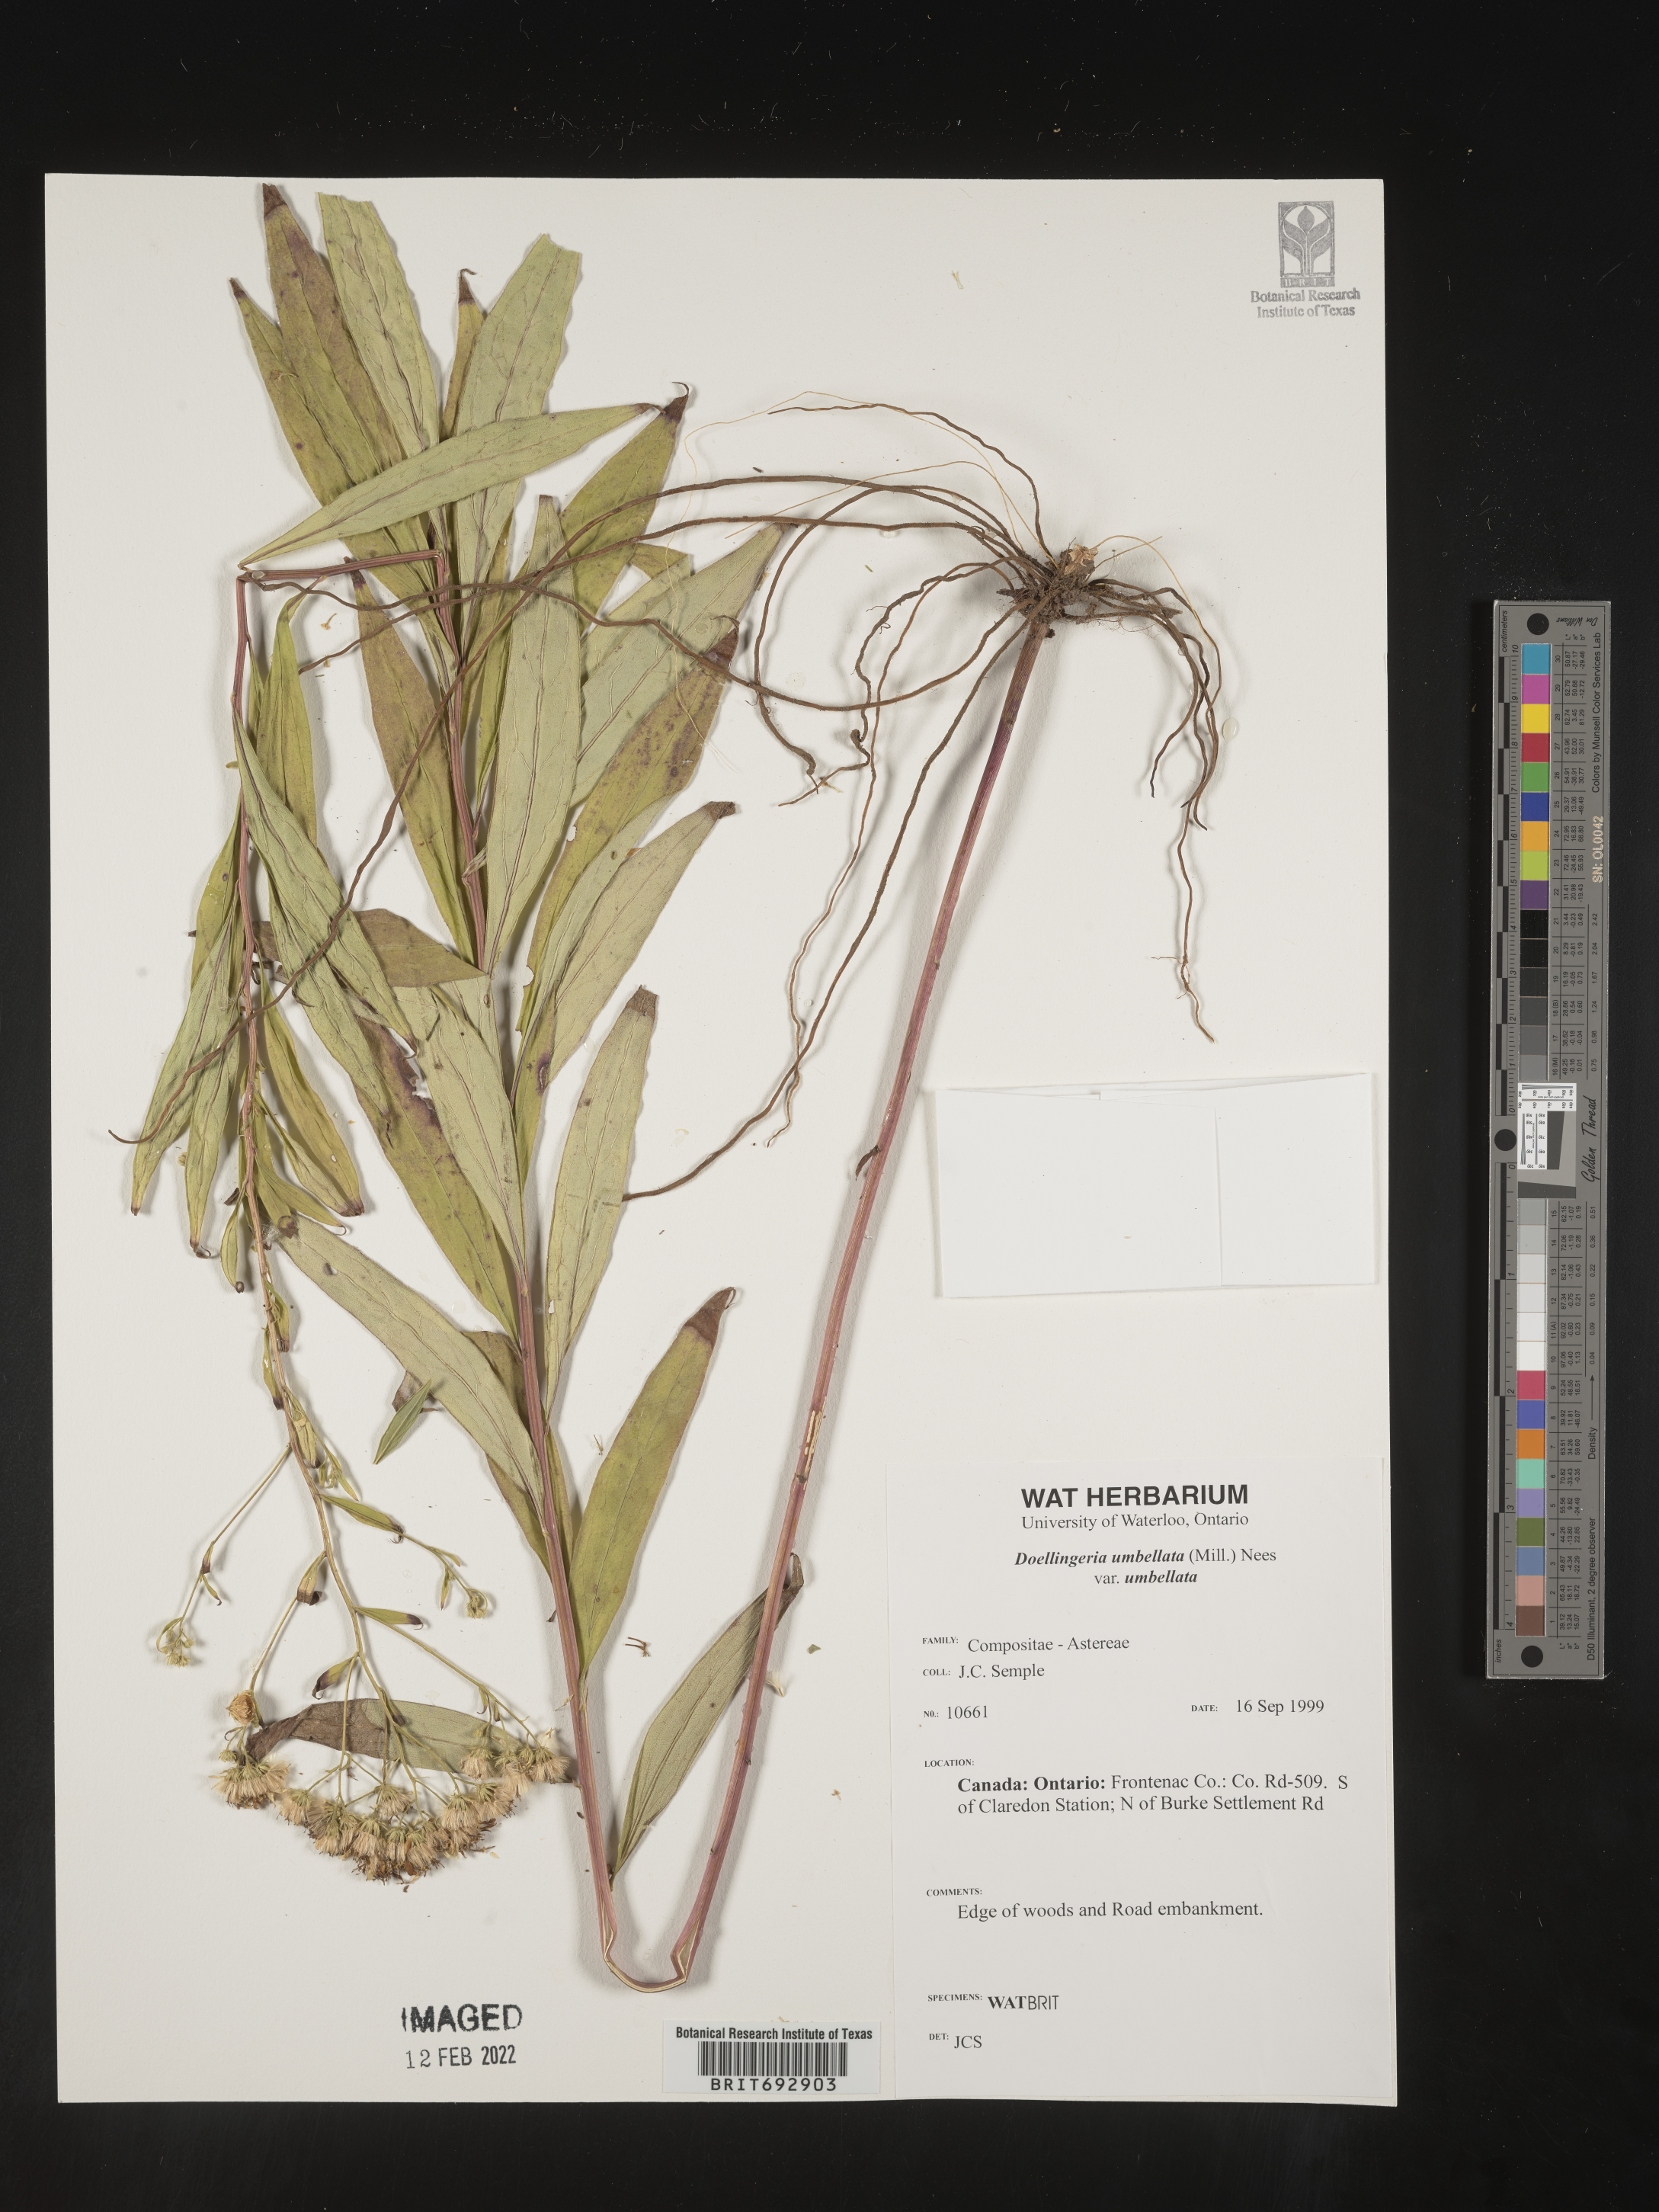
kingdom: Plantae
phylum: Tracheophyta
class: Magnoliopsida
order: Asterales
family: Asteraceae
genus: Doellingeria
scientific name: Doellingeria umbellata
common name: Flat-top white aster
